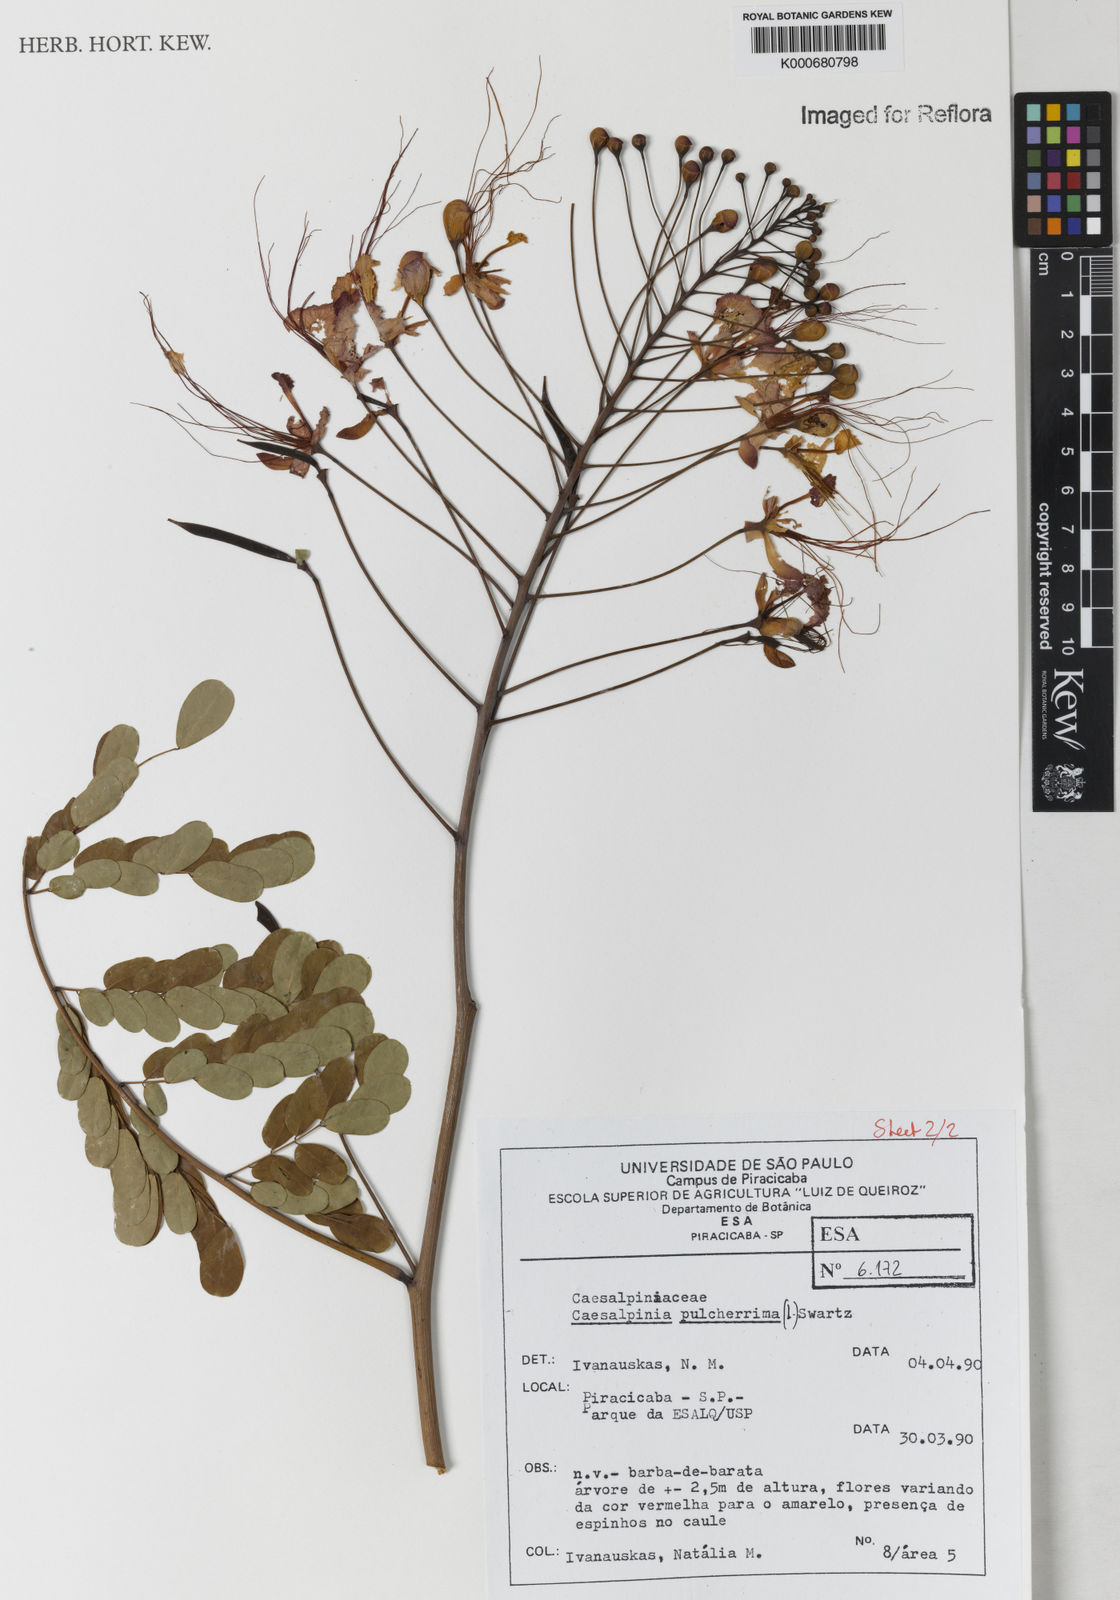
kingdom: Plantae
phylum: Tracheophyta
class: Magnoliopsida
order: Fabales
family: Fabaceae
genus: Caesalpinia
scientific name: Caesalpinia pulcherrima
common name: Pride-of-barbados
